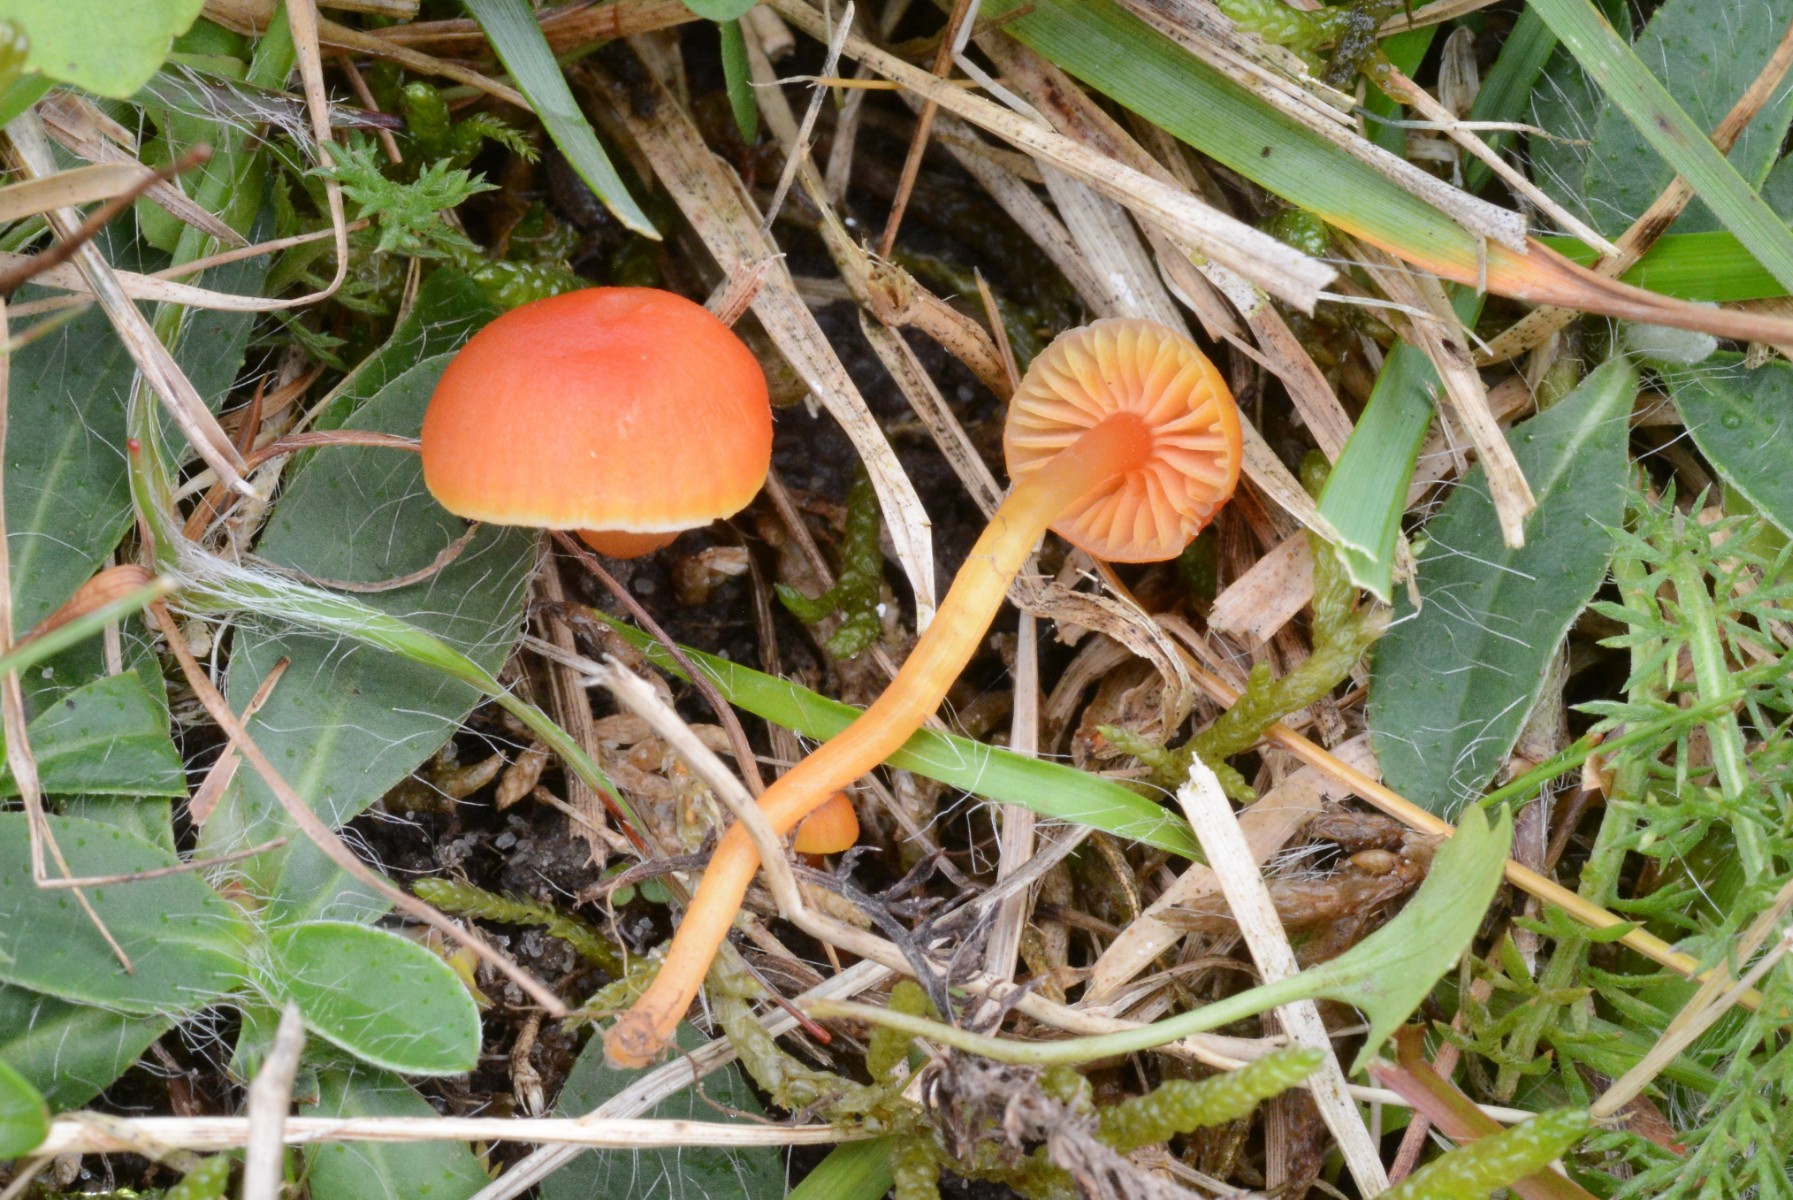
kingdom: Fungi
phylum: Basidiomycota
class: Agaricomycetes
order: Agaricales
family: Hygrophoraceae
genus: Hygrocybe
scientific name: Hygrocybe mucronella
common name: bitter vokshat
